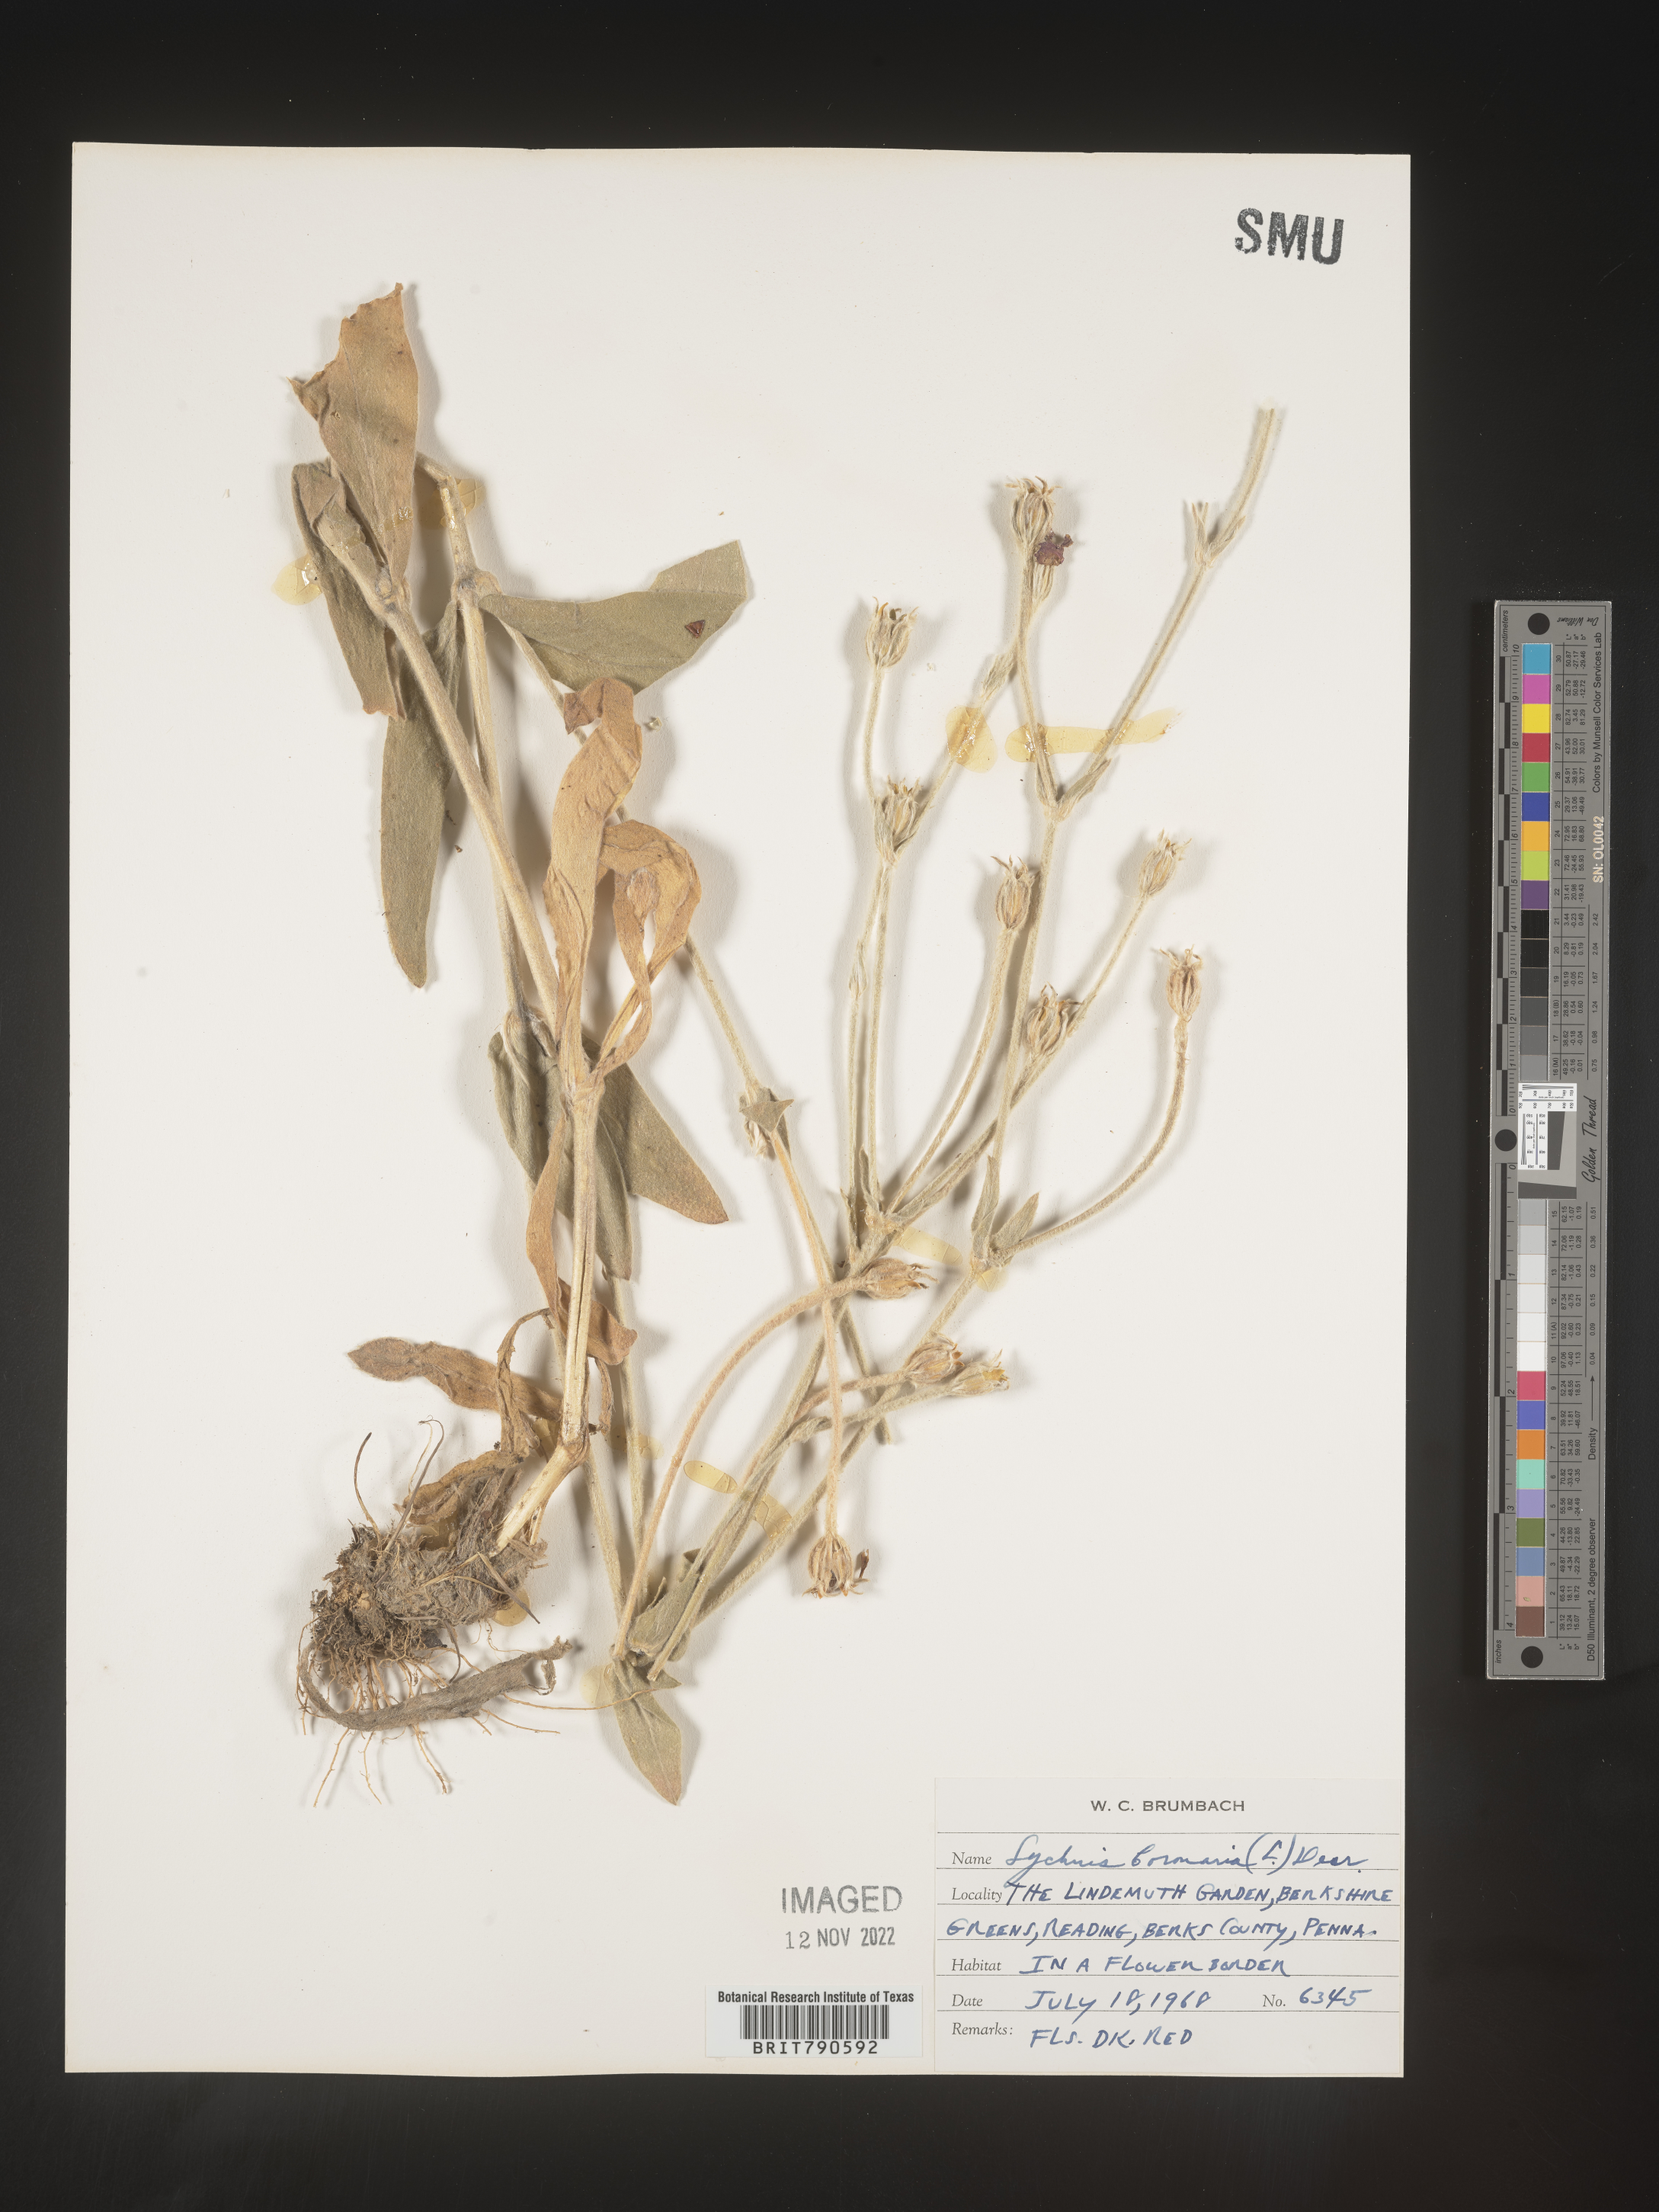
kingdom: Plantae
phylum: Tracheophyta
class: Magnoliopsida
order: Caryophyllales
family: Caryophyllaceae
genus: Silene
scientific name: Silene
